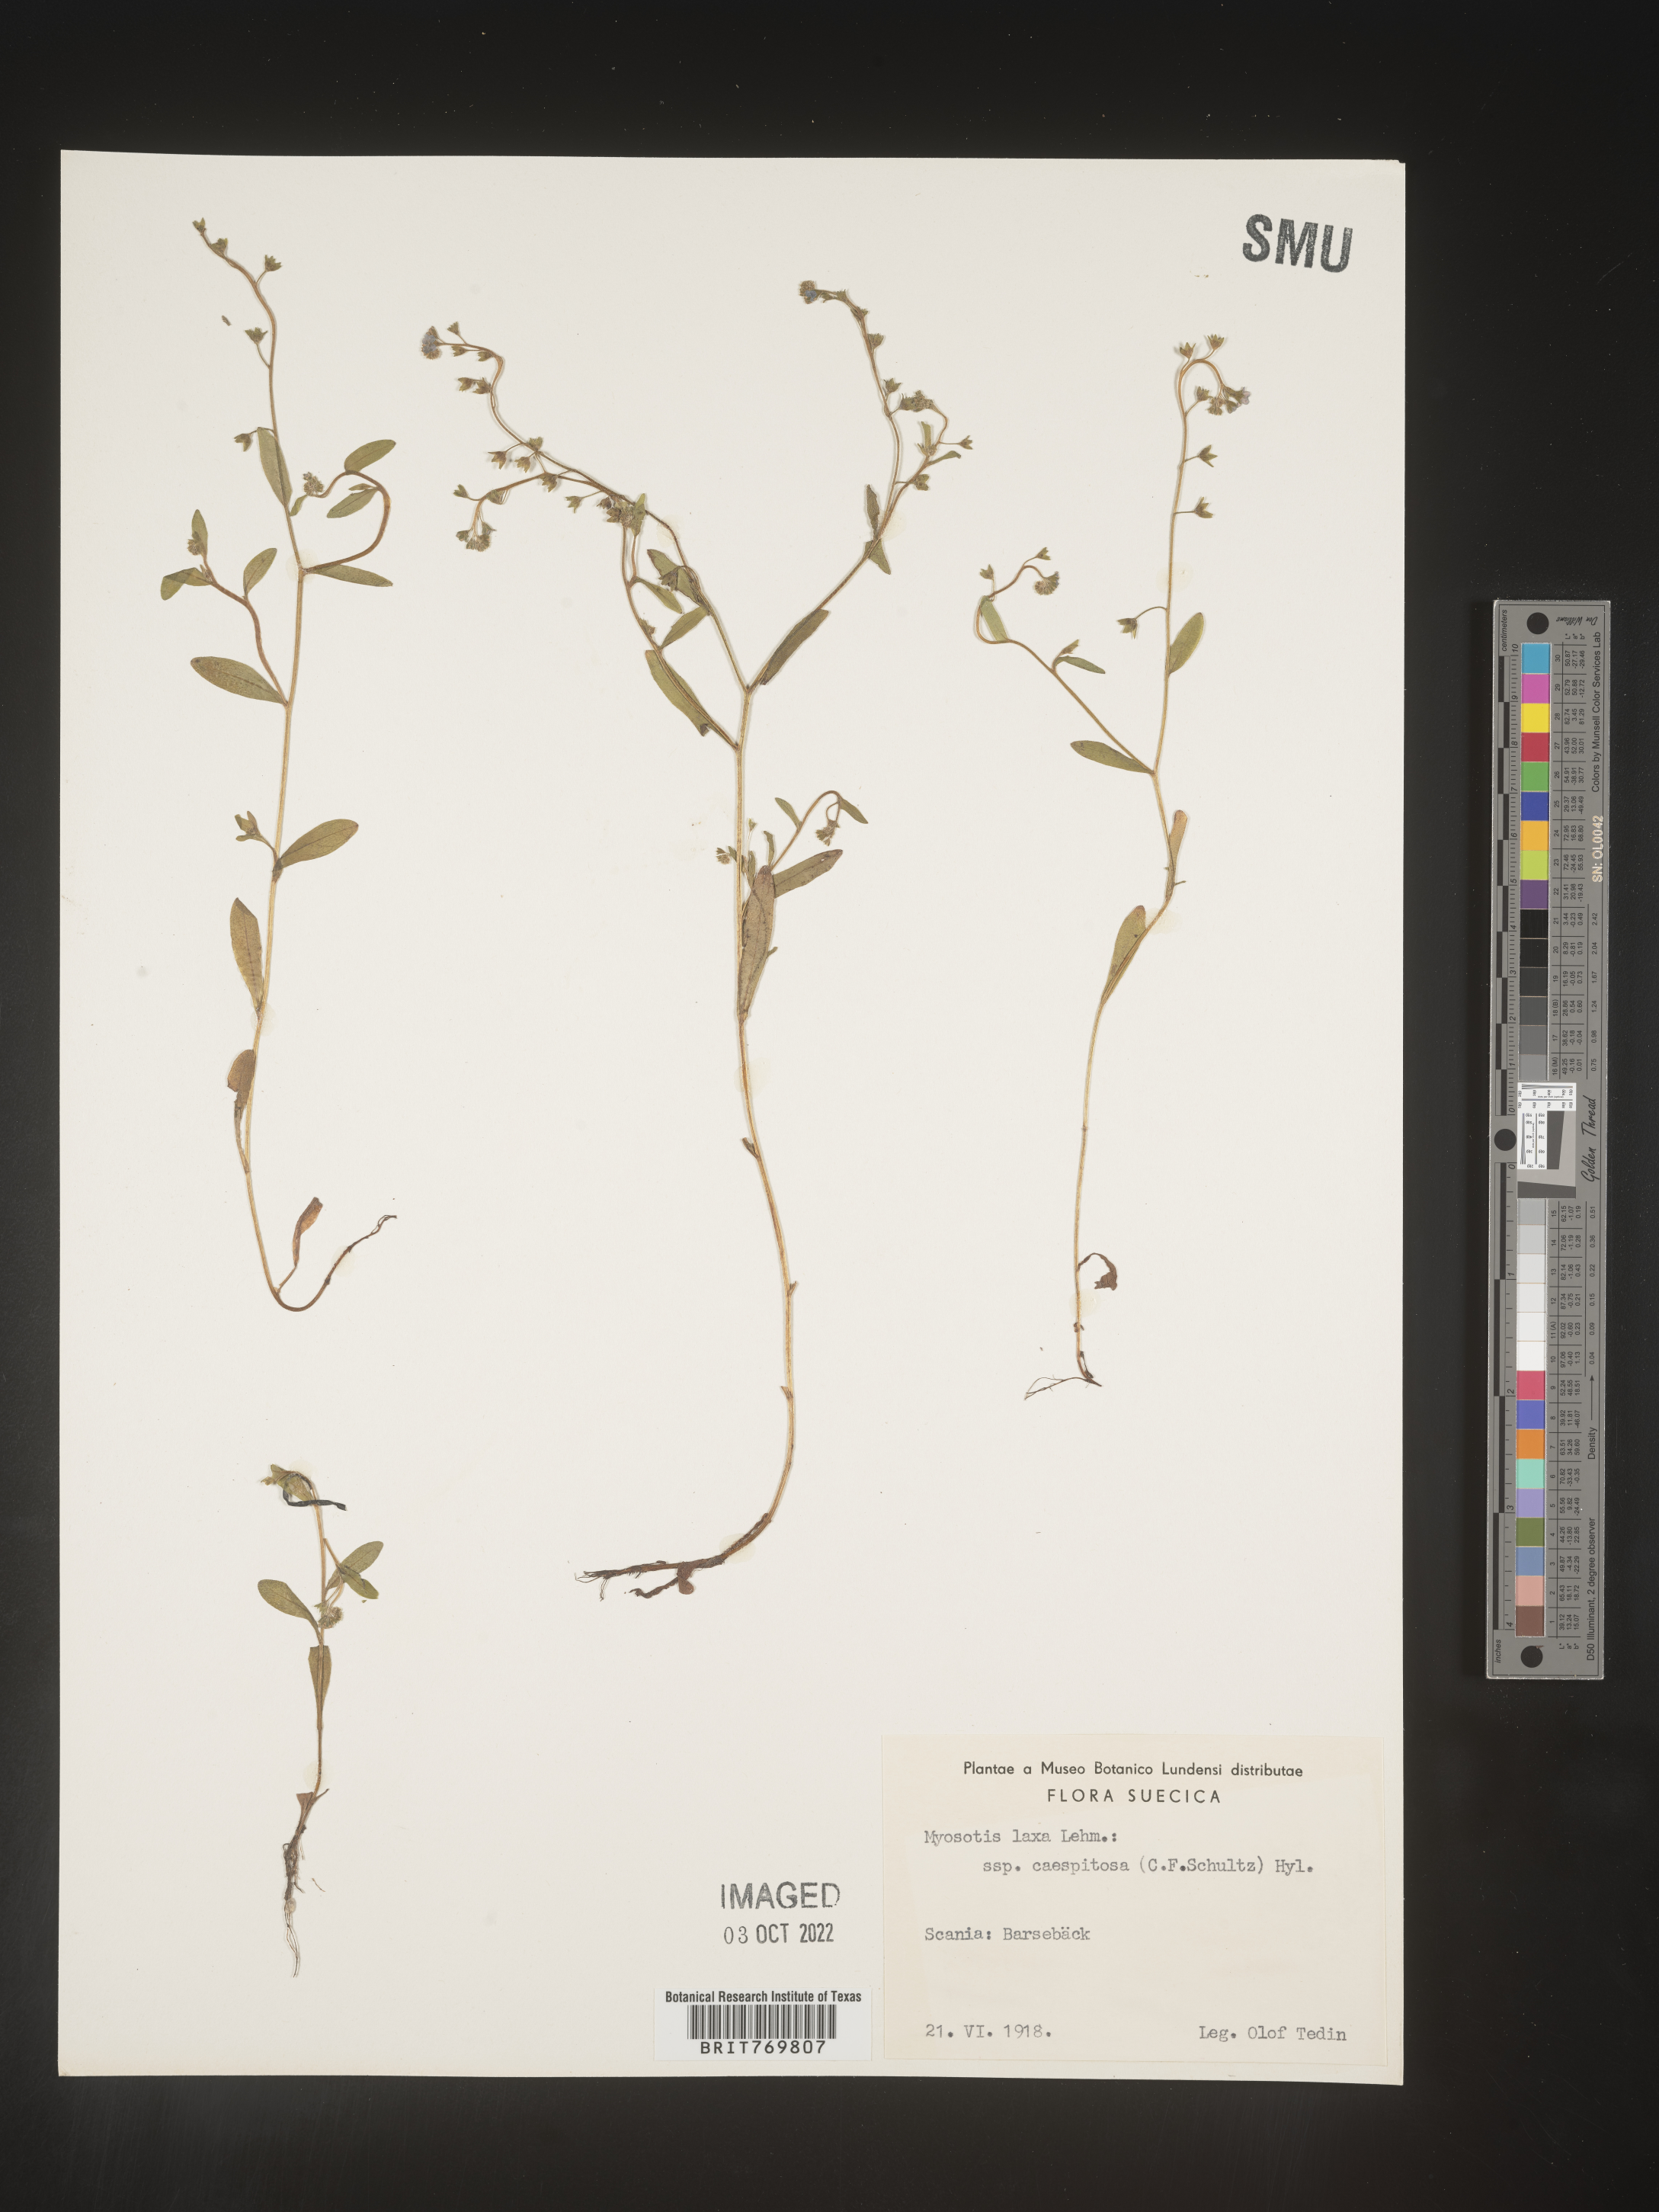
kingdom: Plantae
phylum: Tracheophyta
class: Magnoliopsida
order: Boraginales
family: Boraginaceae
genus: Myosotis
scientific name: Myosotis
